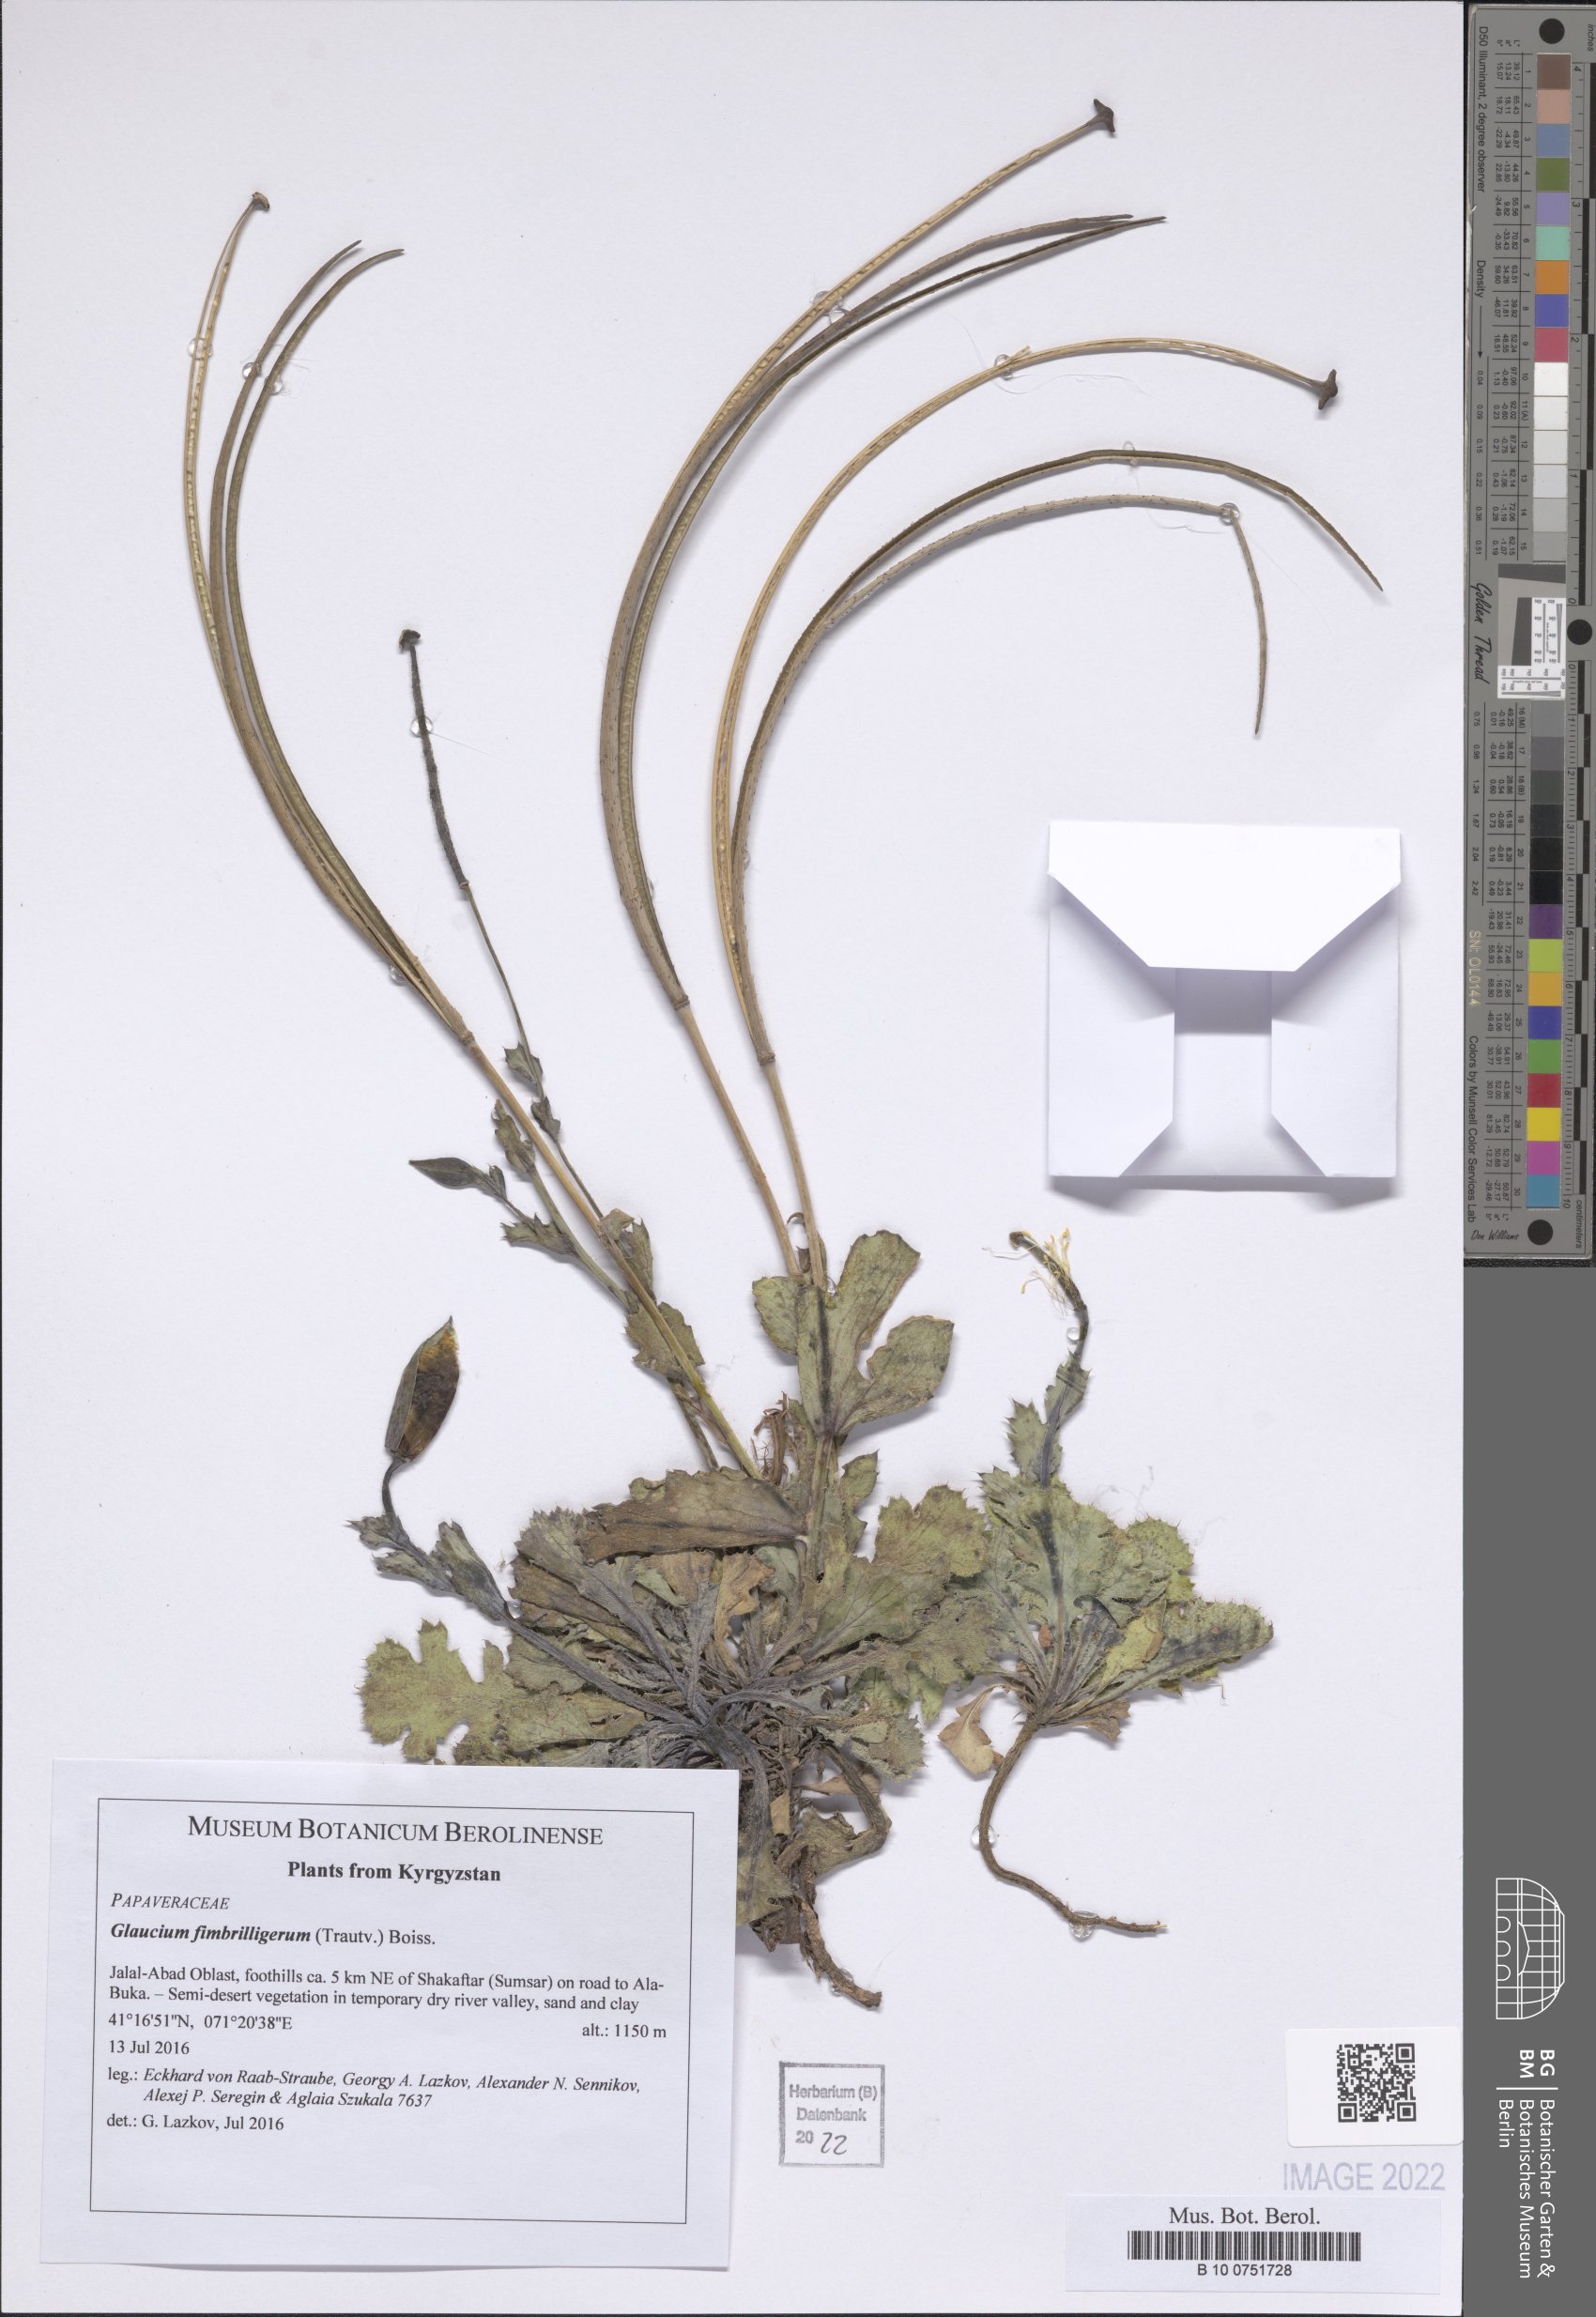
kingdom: Plantae
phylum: Tracheophyta
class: Magnoliopsida
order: Malvales
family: Malvaceae
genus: Alcea
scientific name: Alcea nudiflora
